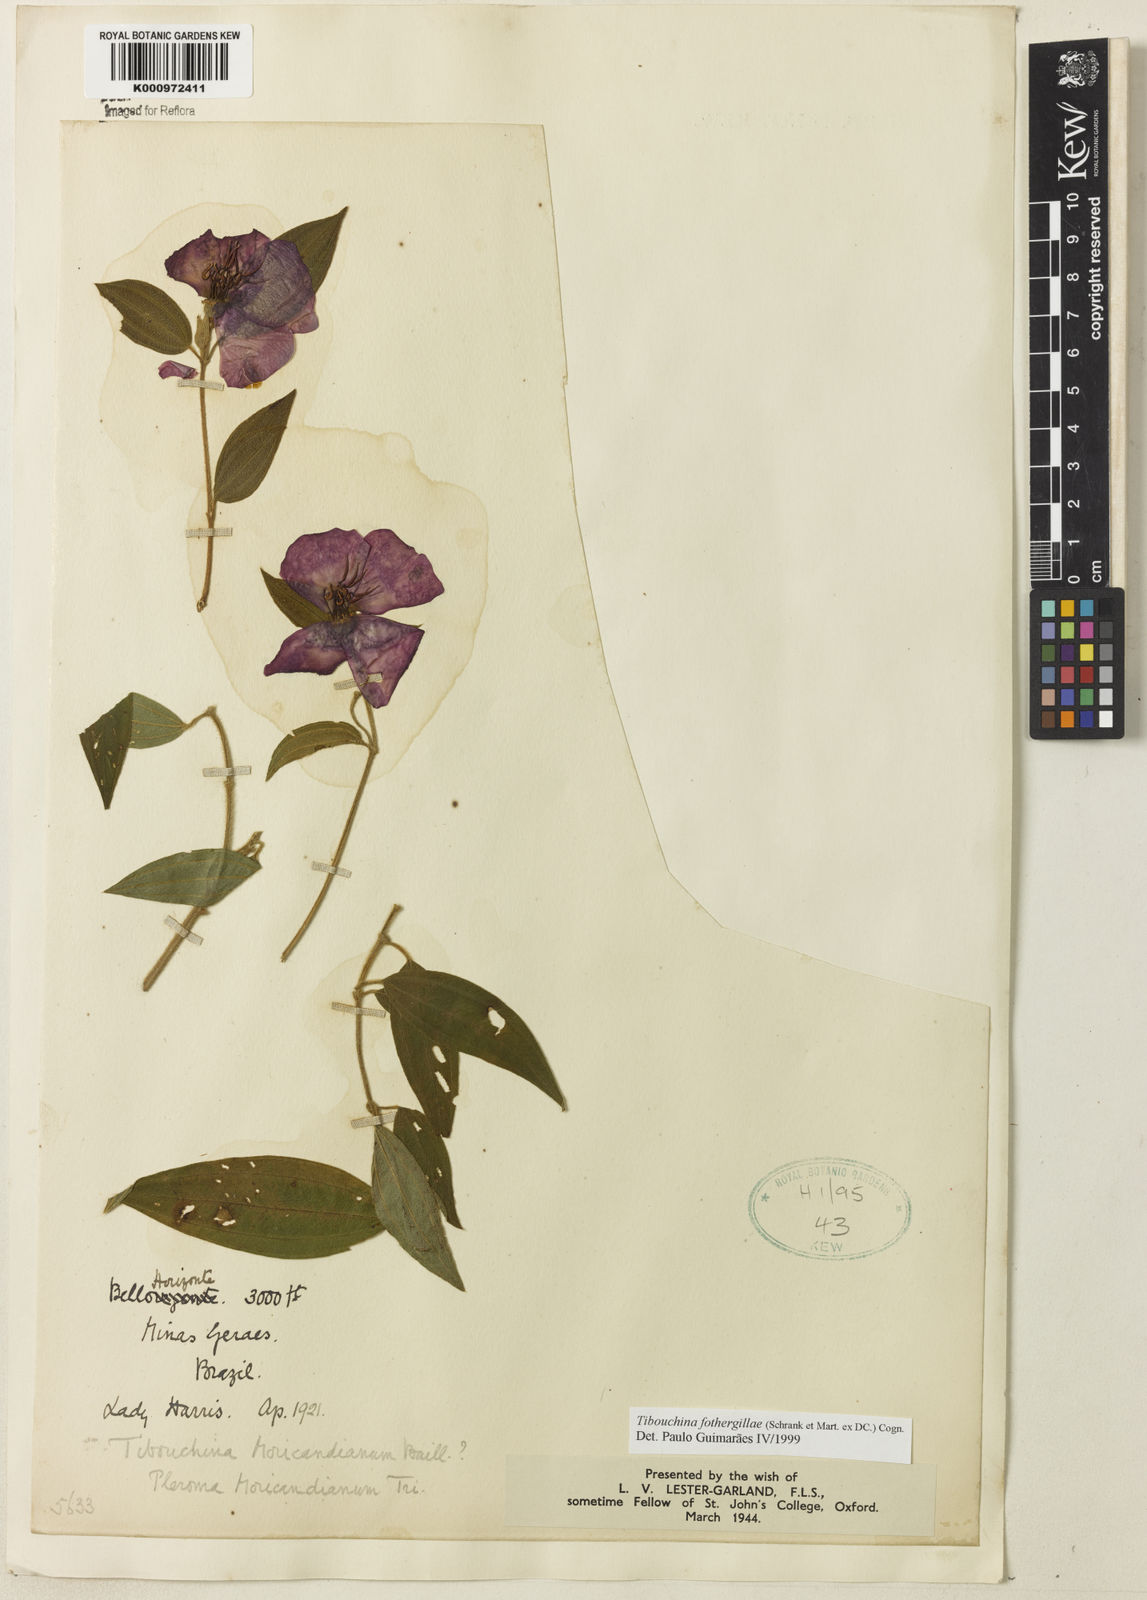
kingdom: Plantae
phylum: Tracheophyta
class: Magnoliopsida
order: Myrtales
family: Melastomataceae
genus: Pleroma
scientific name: Pleroma fothergillae
